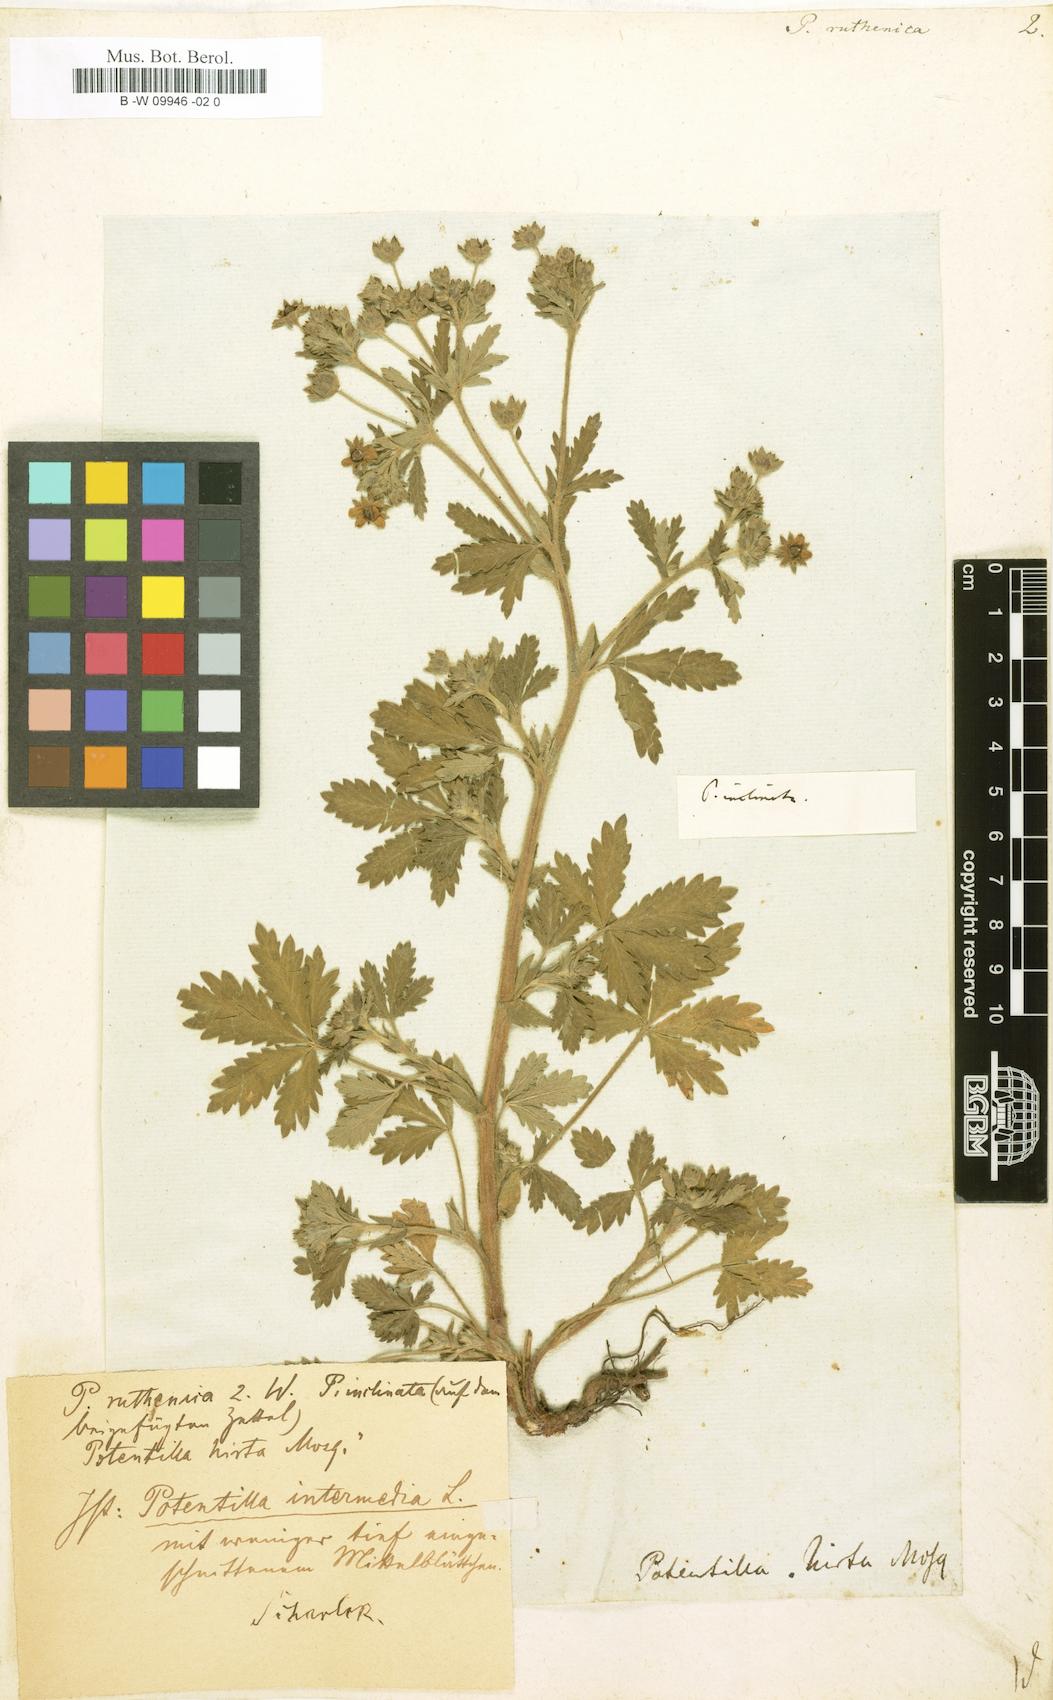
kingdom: Plantae
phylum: Tracheophyta
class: Magnoliopsida
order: Rosales
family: Rosaceae
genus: Potentilla
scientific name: Potentilla
